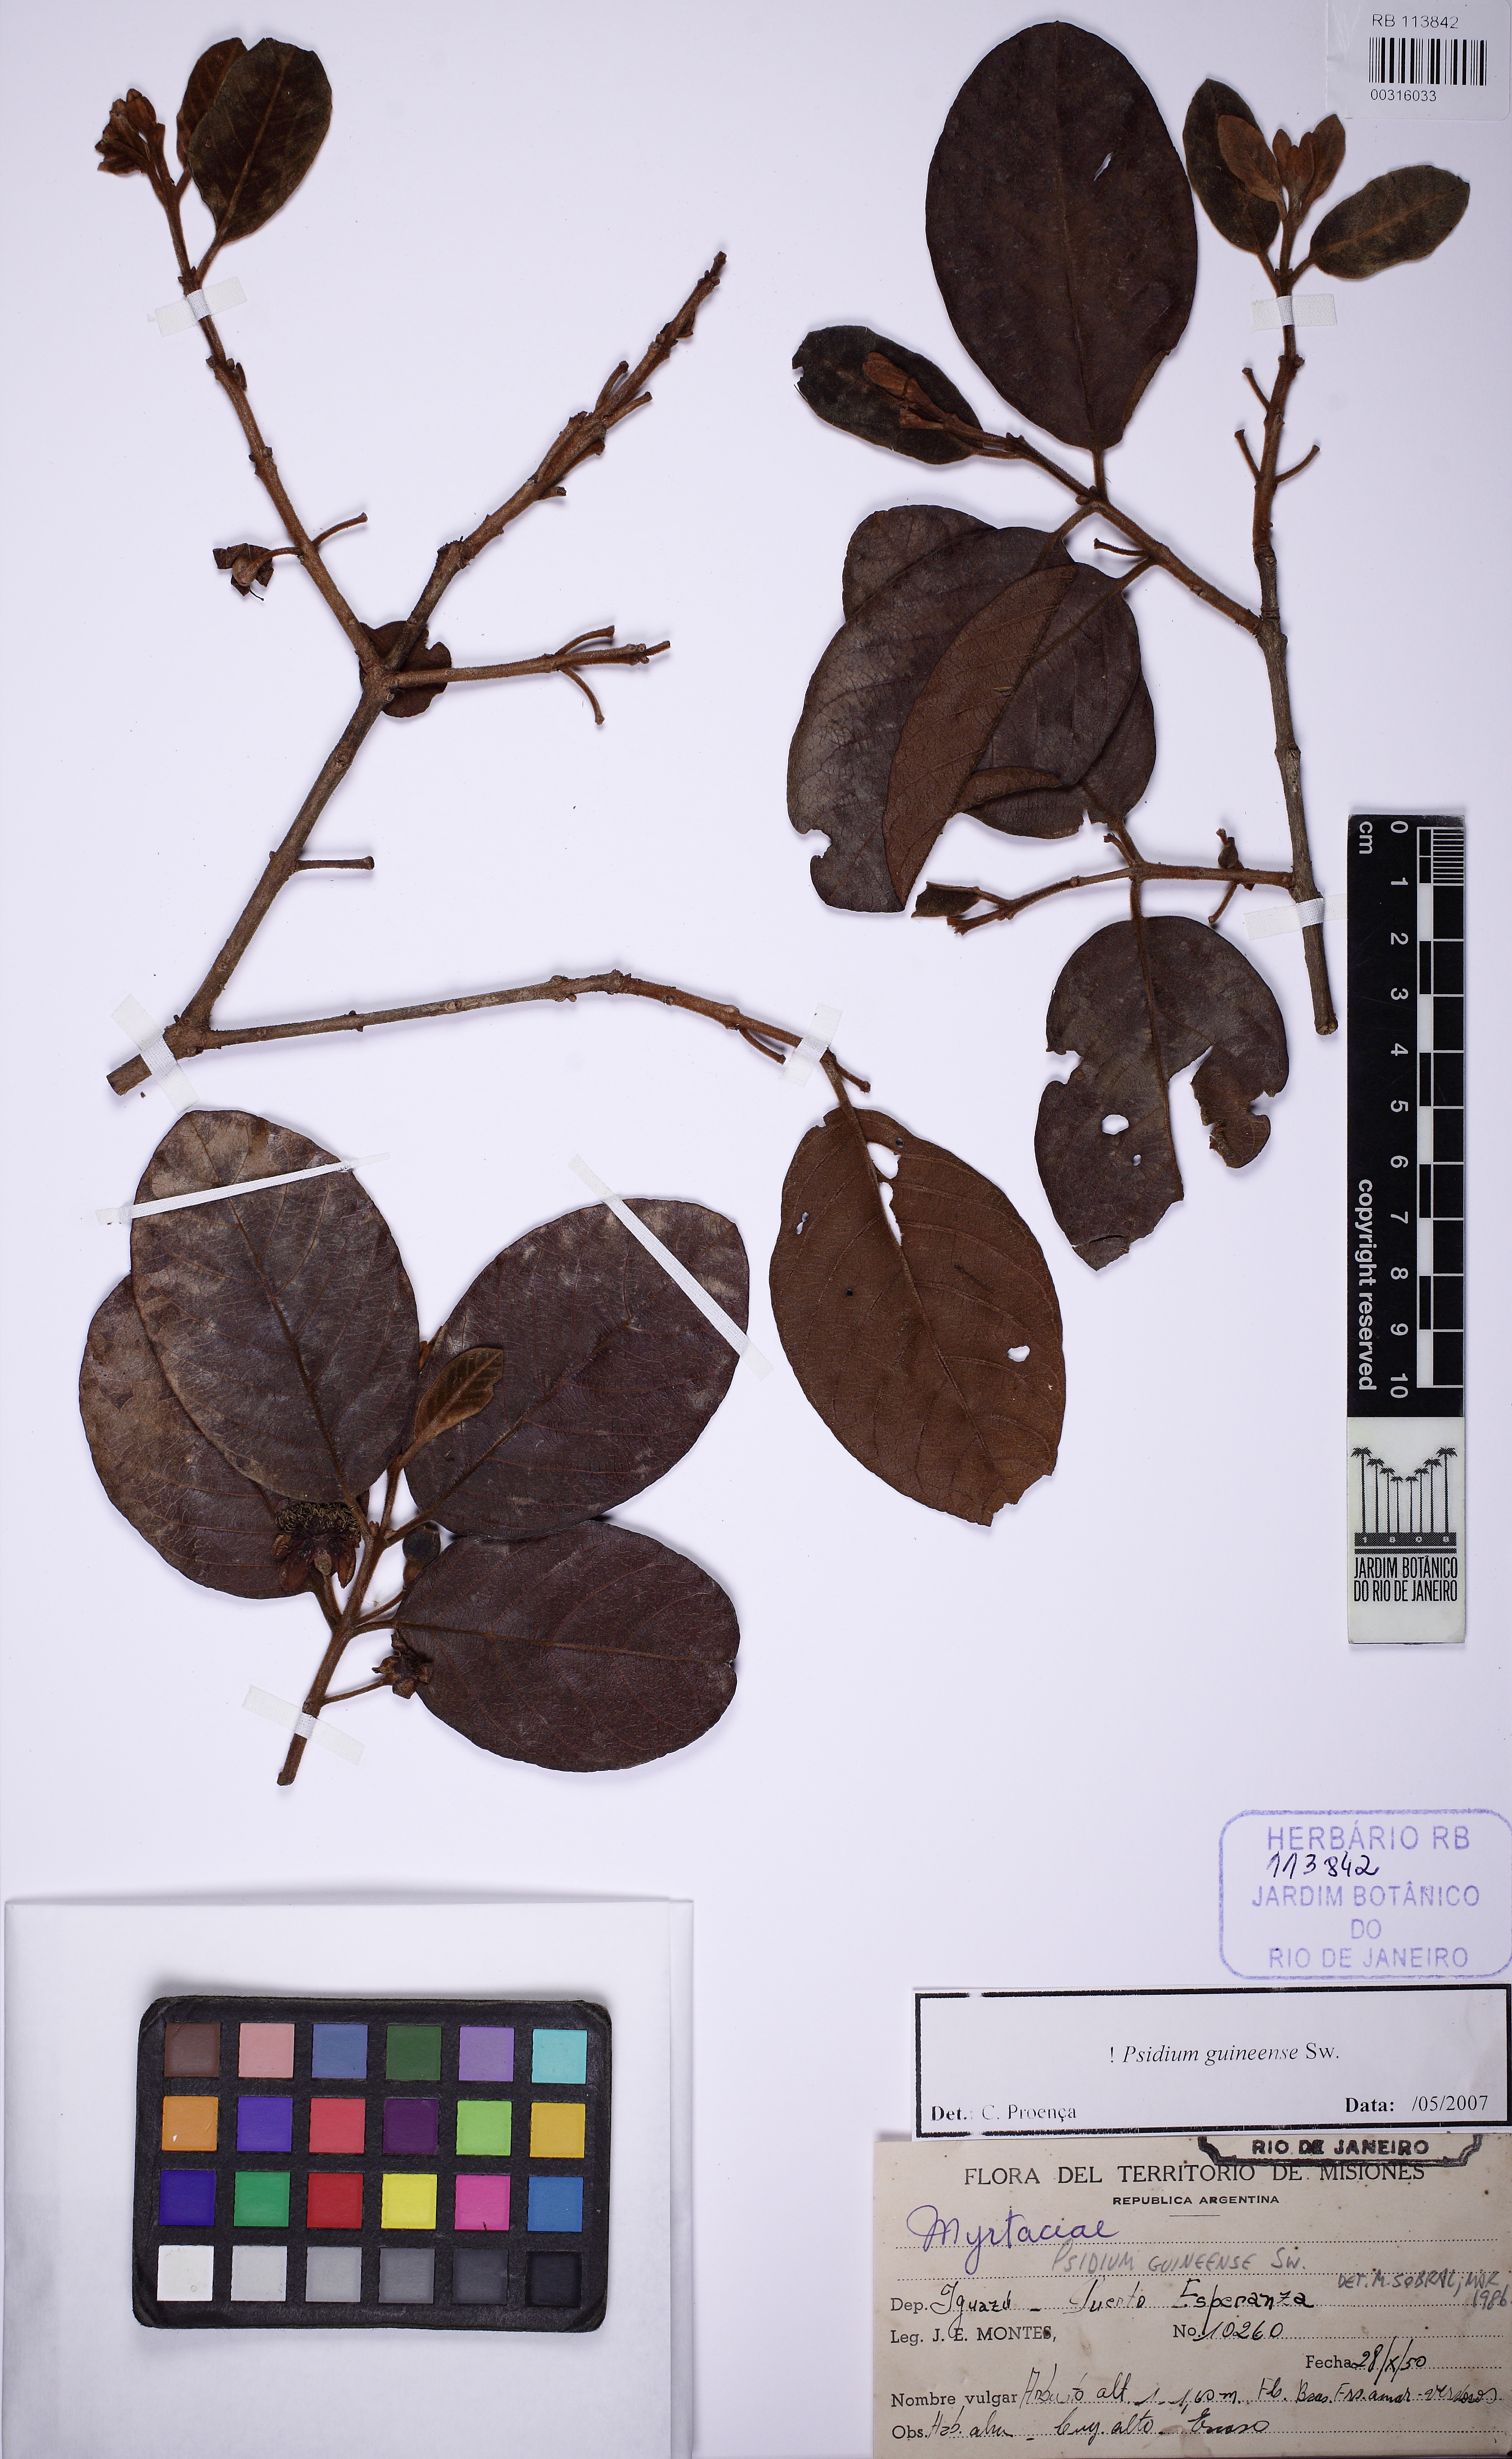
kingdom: Plantae
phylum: Tracheophyta
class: Magnoliopsida
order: Myrtales
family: Myrtaceae
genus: Psidium
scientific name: Psidium guineense
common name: Brazilian guava
